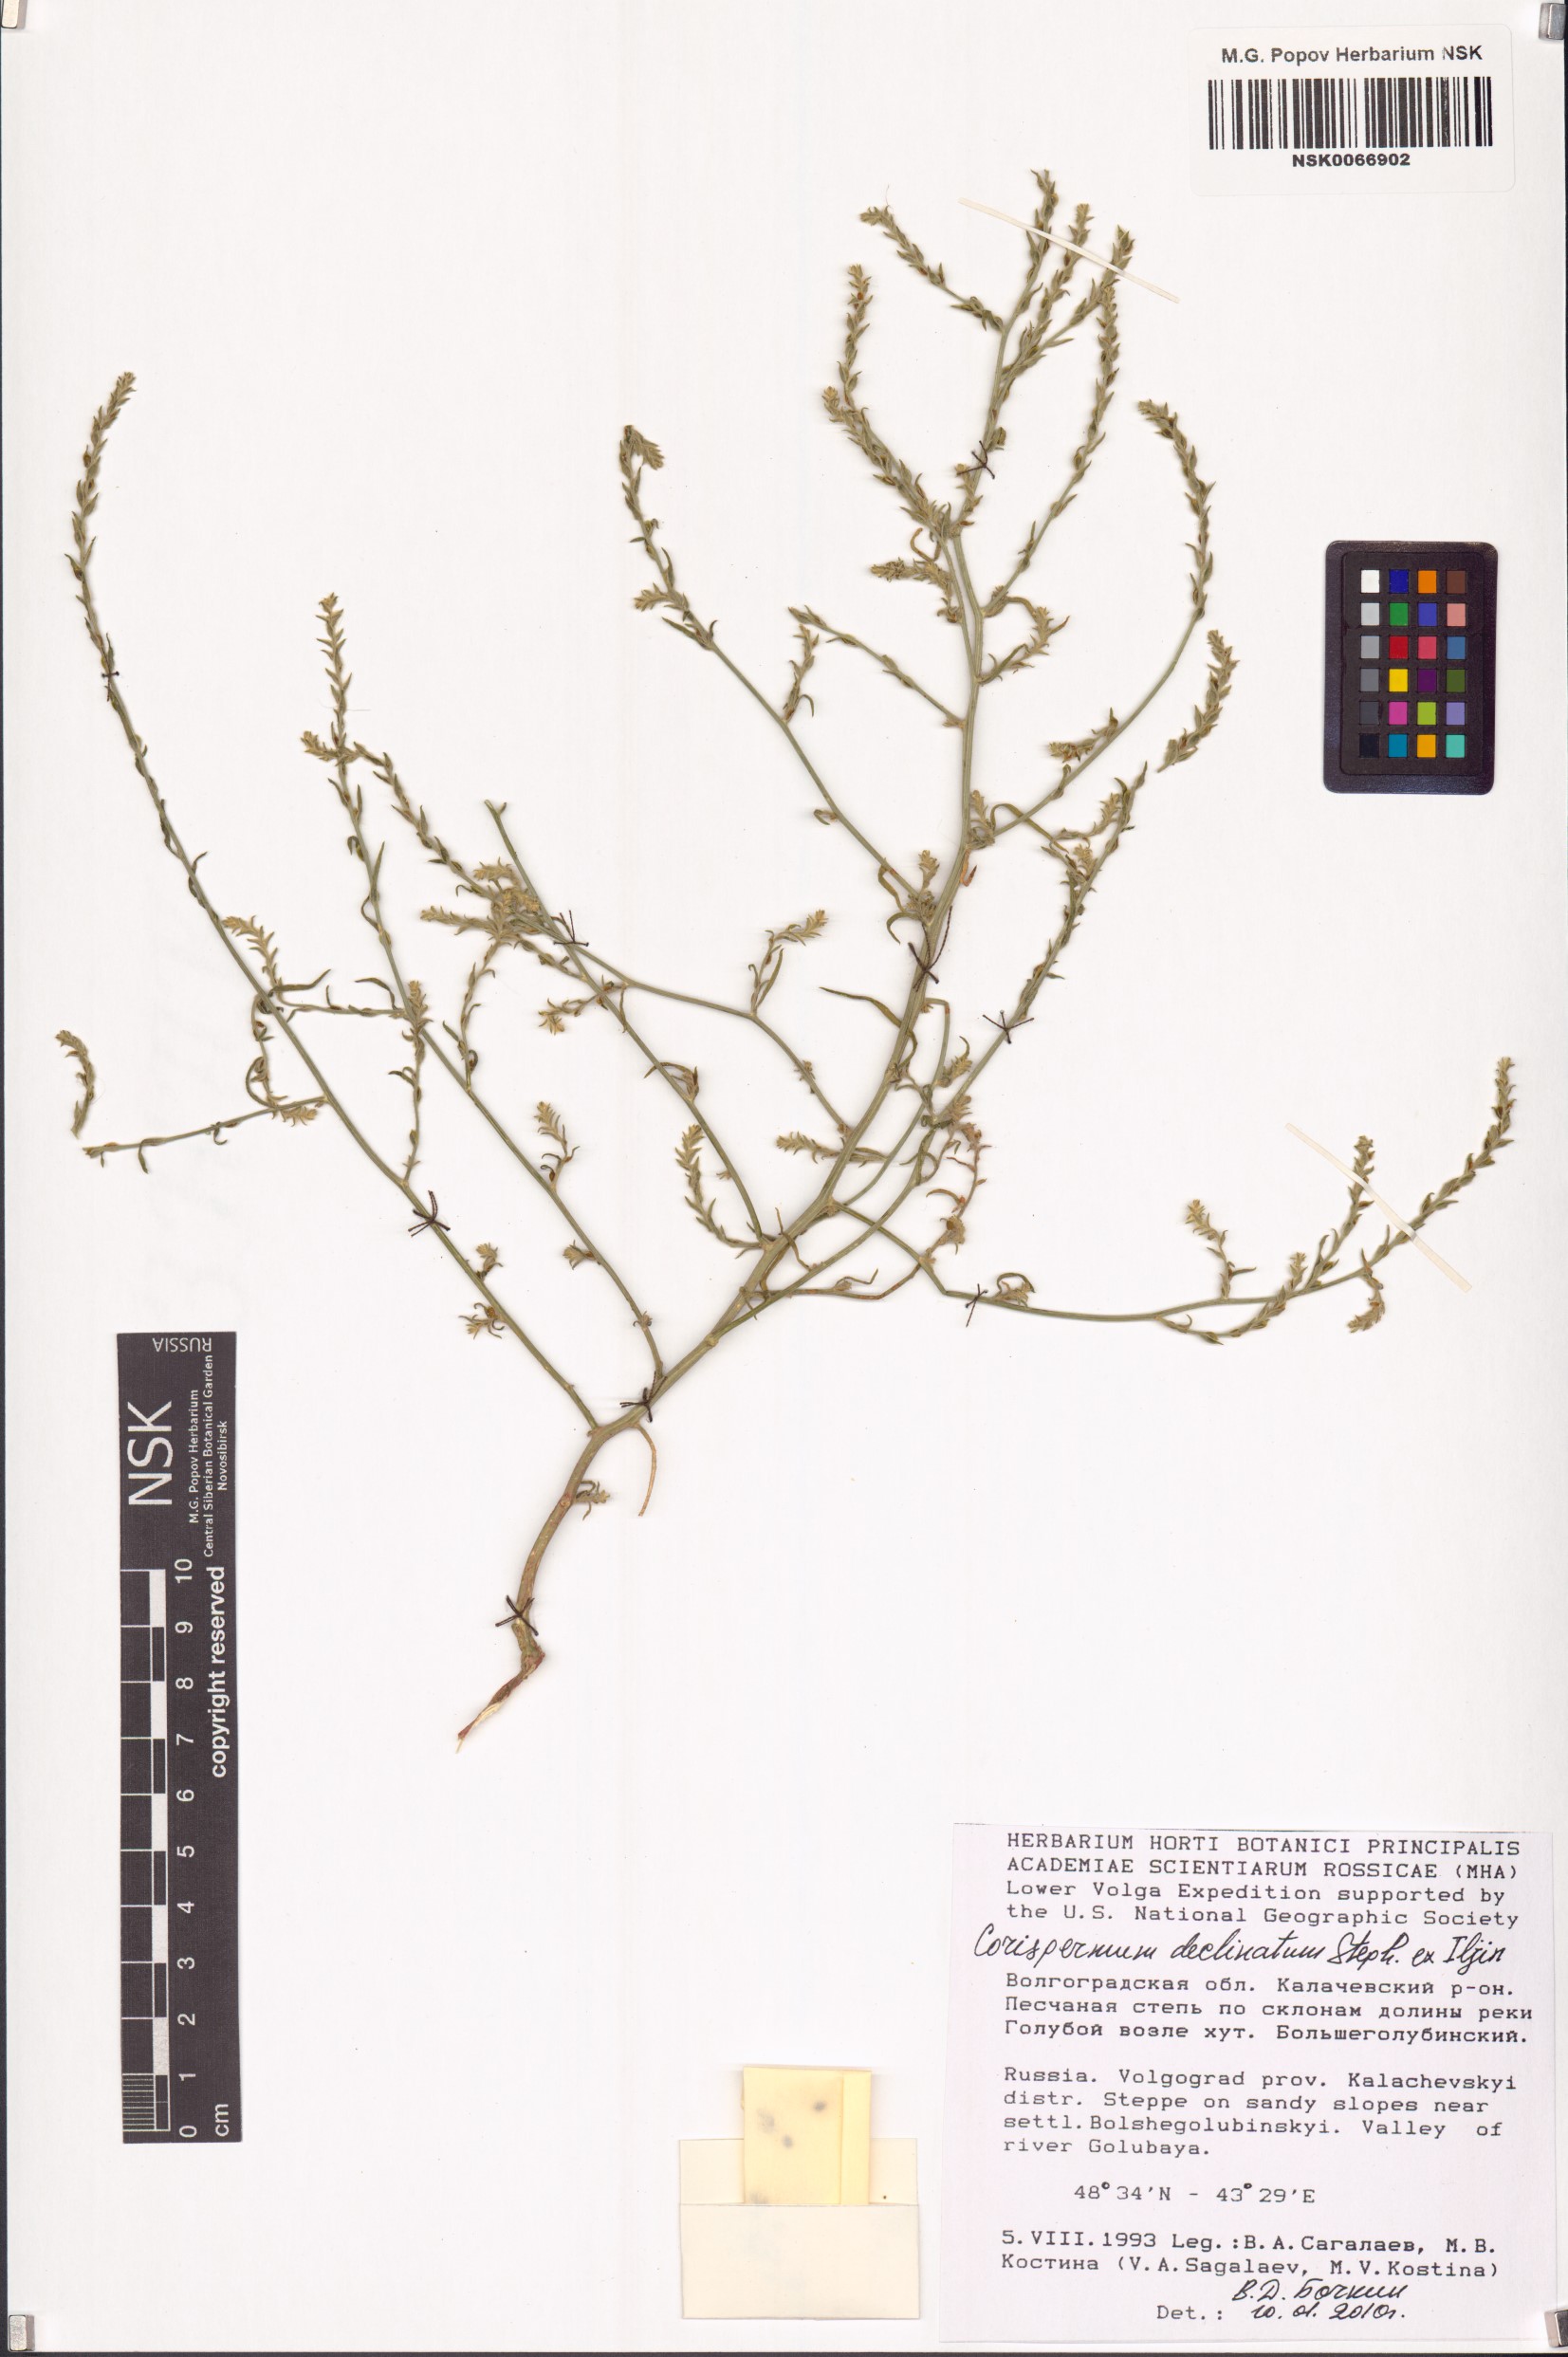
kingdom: Plantae
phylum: Tracheophyta
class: Magnoliopsida
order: Caryophyllales
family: Amaranthaceae
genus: Corispermum
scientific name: Corispermum declinatum
